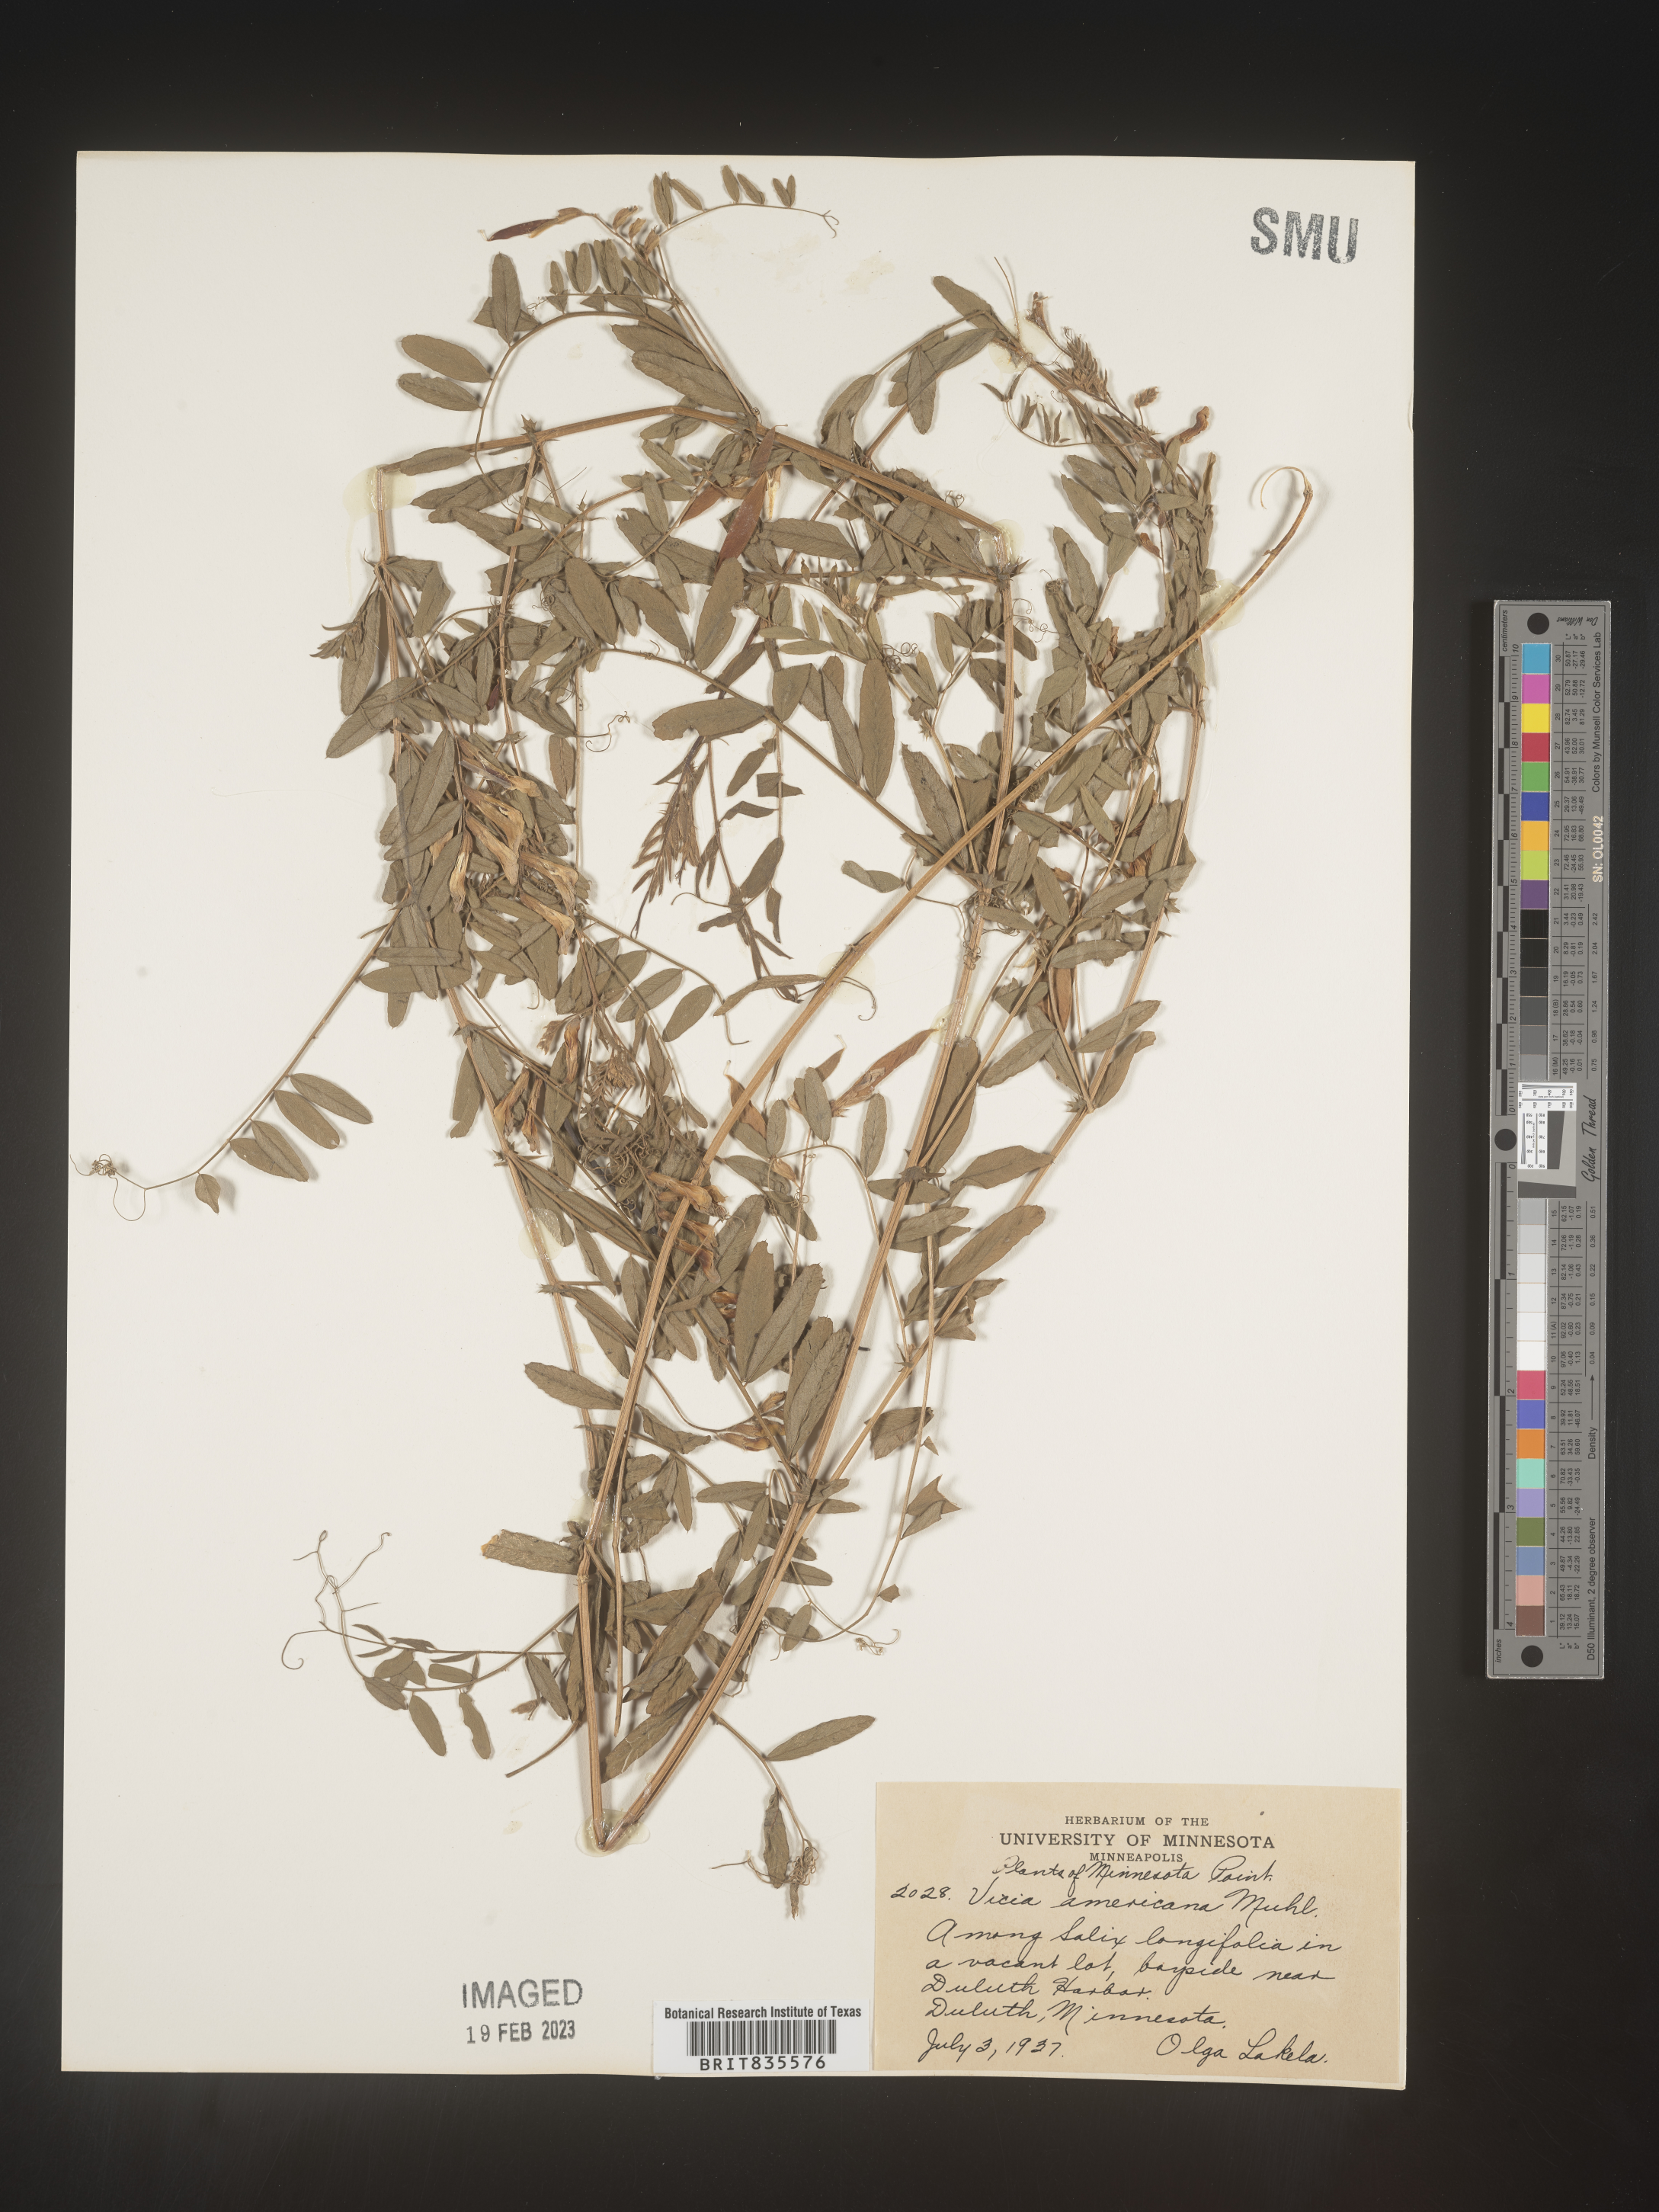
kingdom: Plantae
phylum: Tracheophyta
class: Magnoliopsida
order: Fabales
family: Fabaceae
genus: Vicia
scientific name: Vicia americana
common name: American vetch
